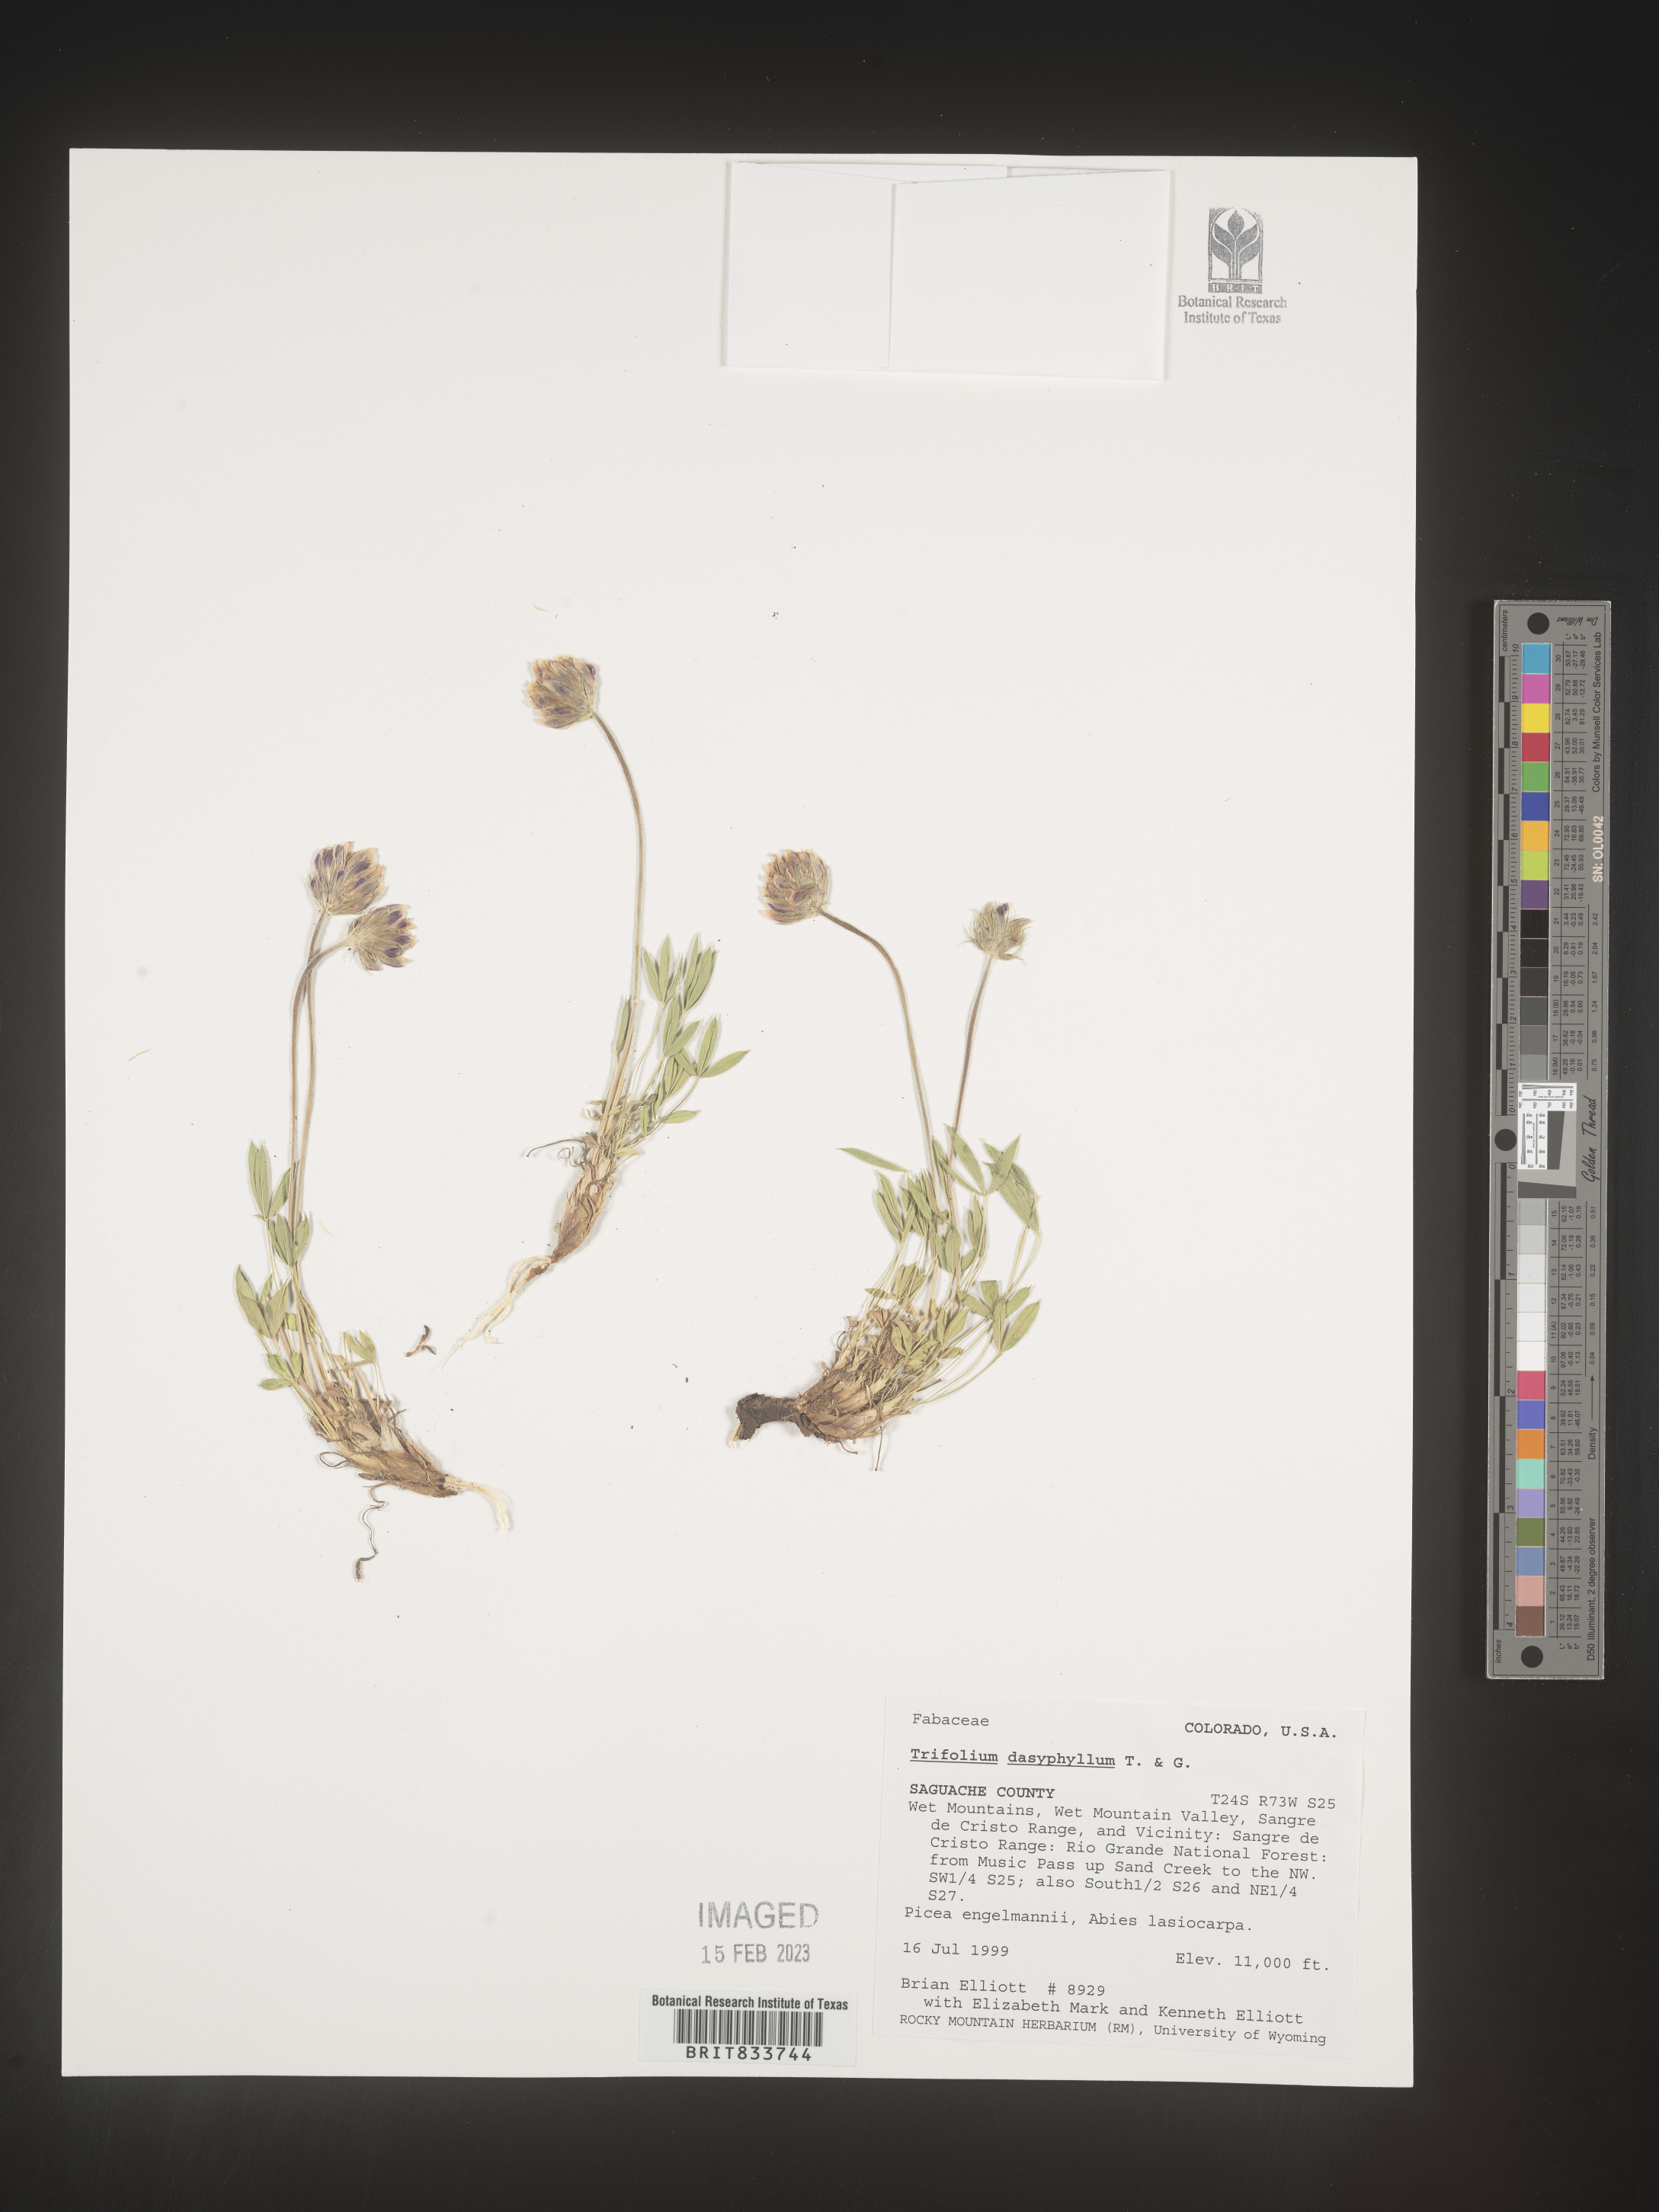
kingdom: Plantae
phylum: Tracheophyta
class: Magnoliopsida
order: Fabales
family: Fabaceae
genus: Trifolium
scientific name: Trifolium
